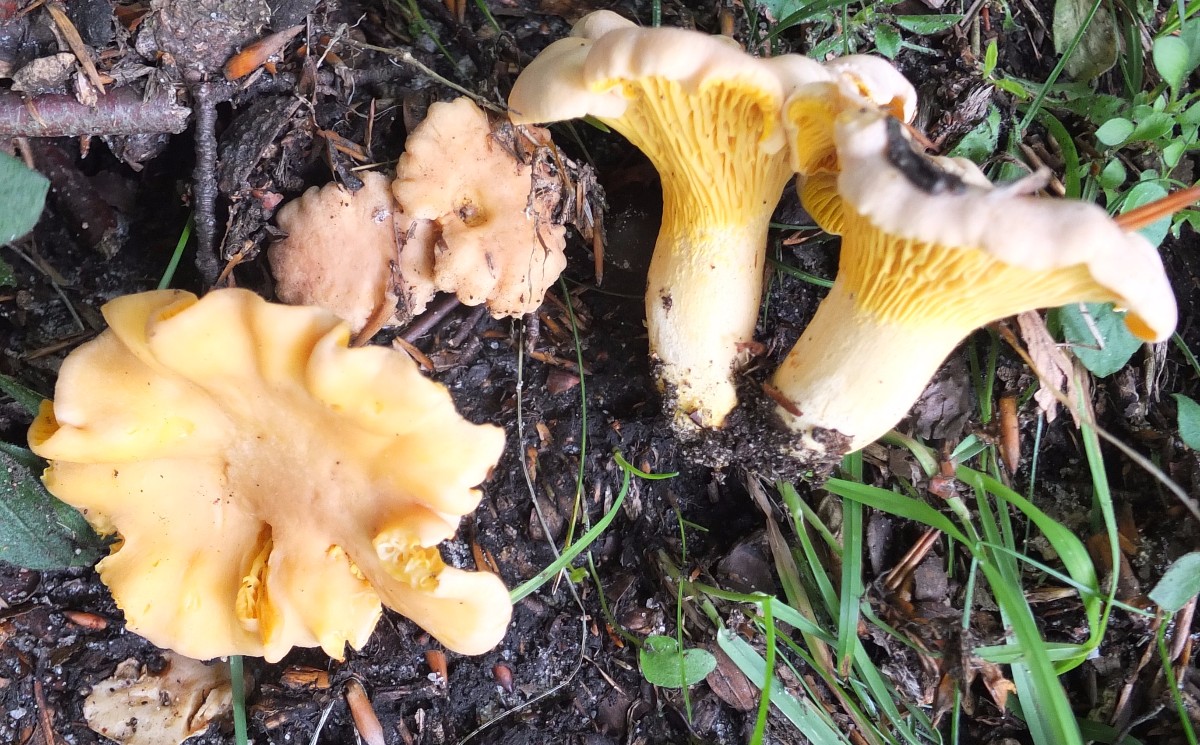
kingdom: Fungi
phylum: Basidiomycota
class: Agaricomycetes
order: Cantharellales
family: Hydnaceae
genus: Cantharellus
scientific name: Cantharellus pallens
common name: bleg kantarel
